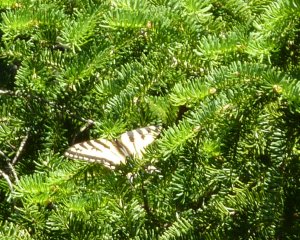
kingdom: Animalia
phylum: Arthropoda
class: Insecta
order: Lepidoptera
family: Papilionidae
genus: Pterourus
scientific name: Pterourus canadensis
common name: Canadian Tiger Swallowtail
